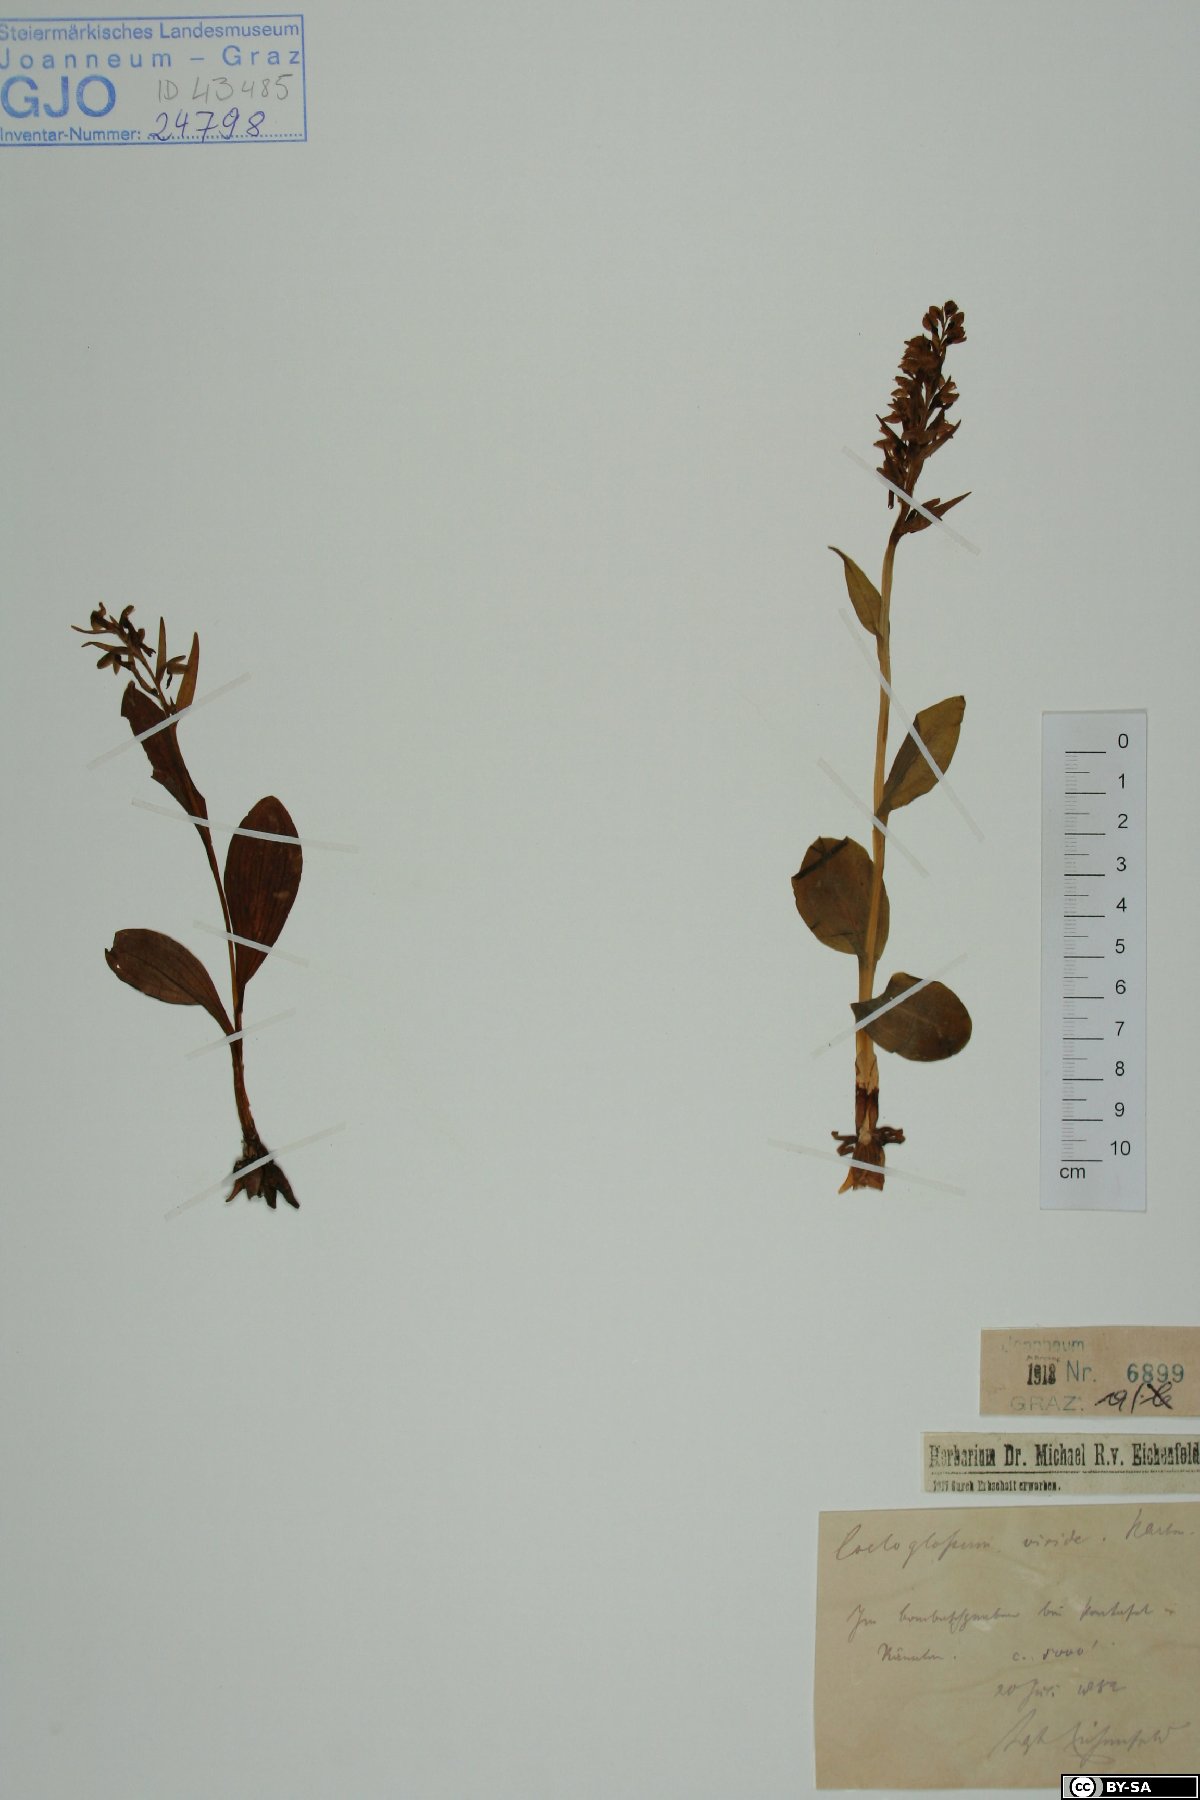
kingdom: Plantae
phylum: Tracheophyta
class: Liliopsida
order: Asparagales
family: Orchidaceae
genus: Dactylorhiza
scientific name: Dactylorhiza viridis
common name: Longbract frog orchid
